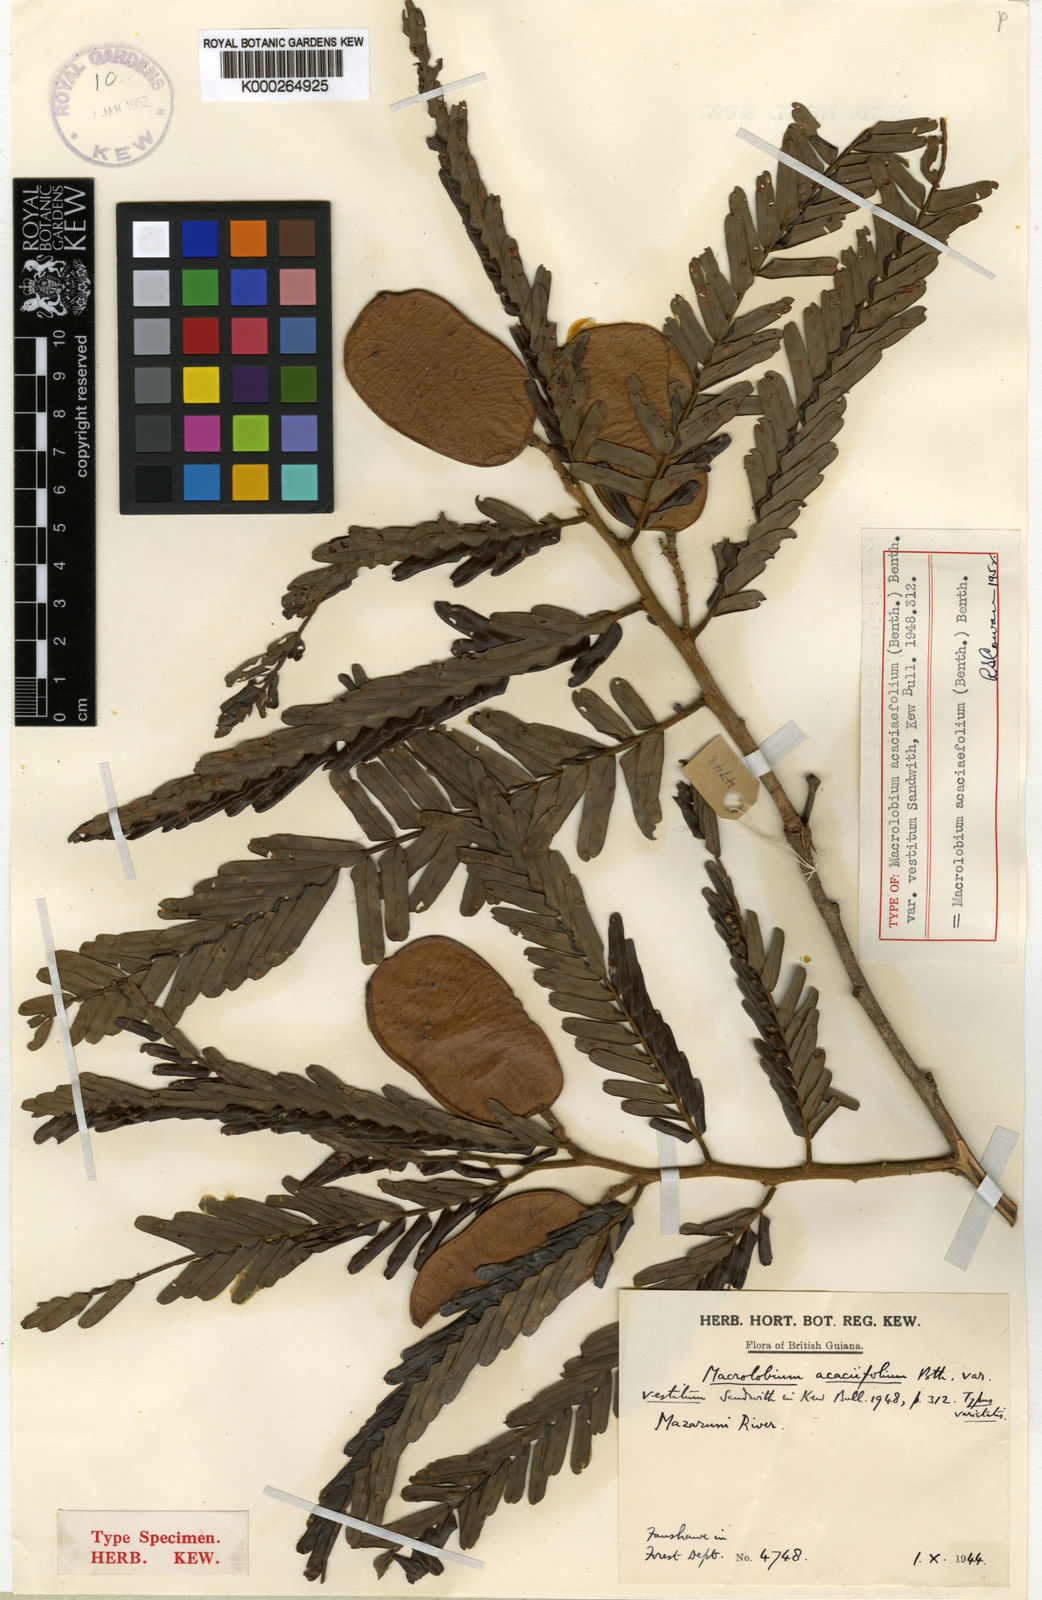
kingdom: Plantae
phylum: Tracheophyta
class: Magnoliopsida
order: Fabales
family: Fabaceae
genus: Macrolobium
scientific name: Macrolobium acaciifolium
